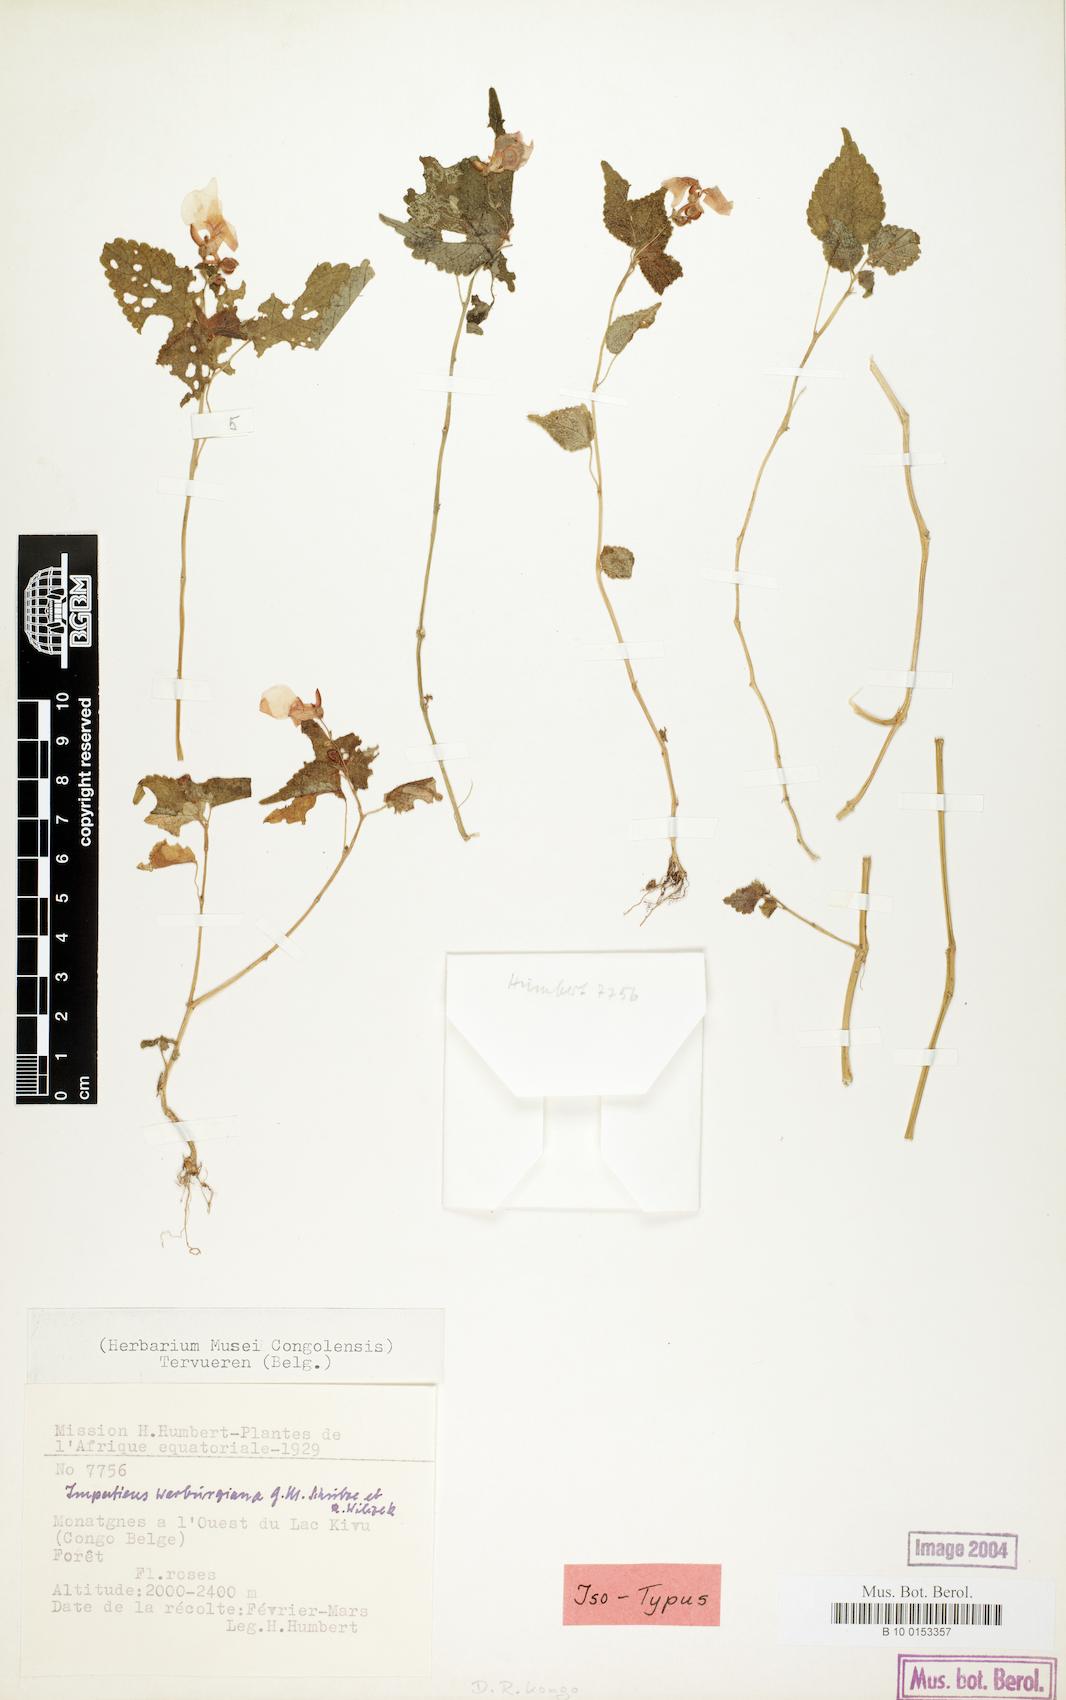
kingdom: Plantae
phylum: Tracheophyta
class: Magnoliopsida
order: Ericales
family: Balsaminaceae
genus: Impatiens
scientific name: Impatiens warburgiana
